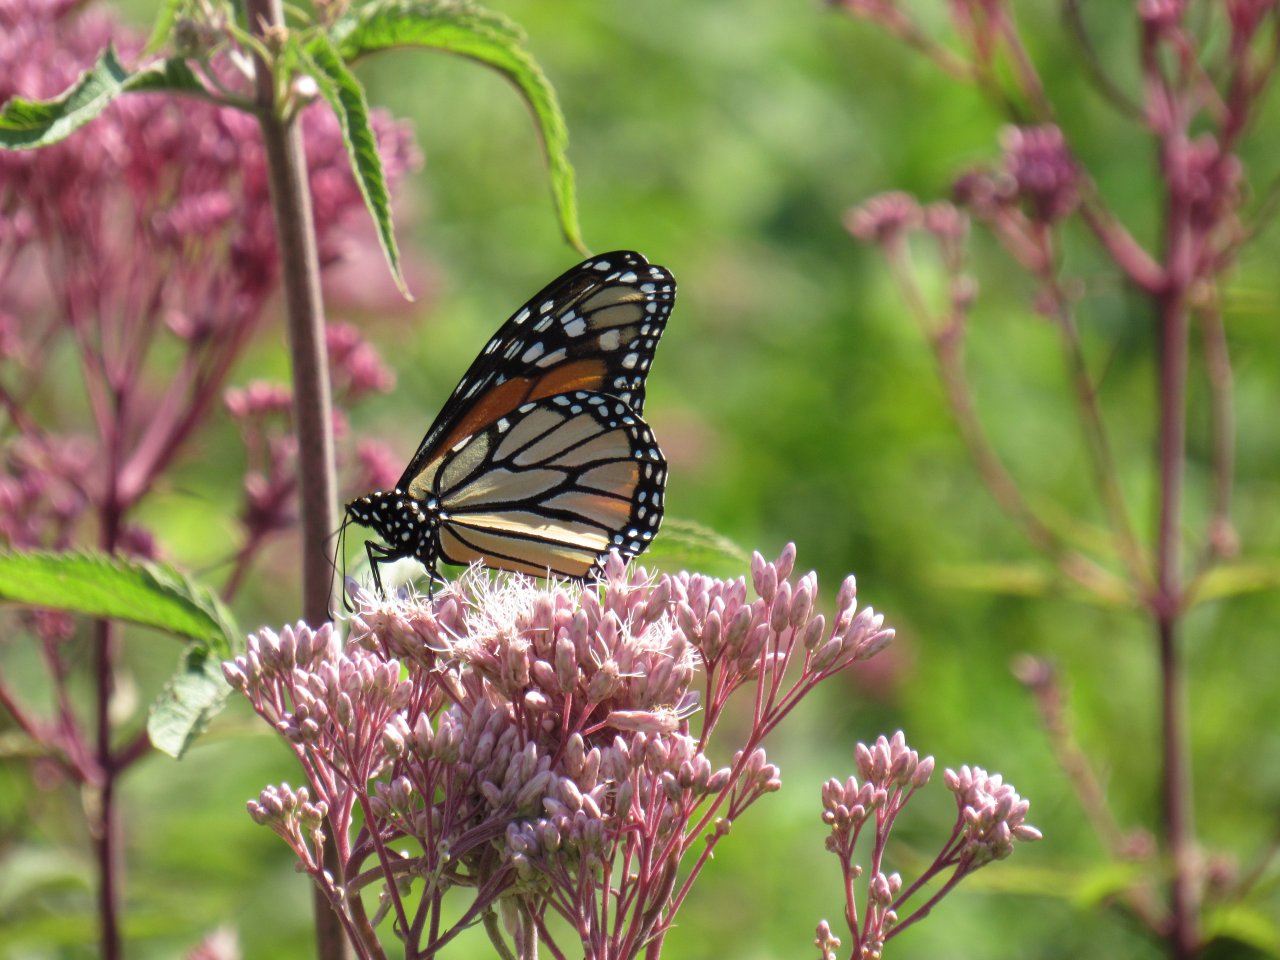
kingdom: Animalia
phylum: Arthropoda
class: Insecta
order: Lepidoptera
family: Nymphalidae
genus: Danaus
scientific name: Danaus plexippus
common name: Monarch
